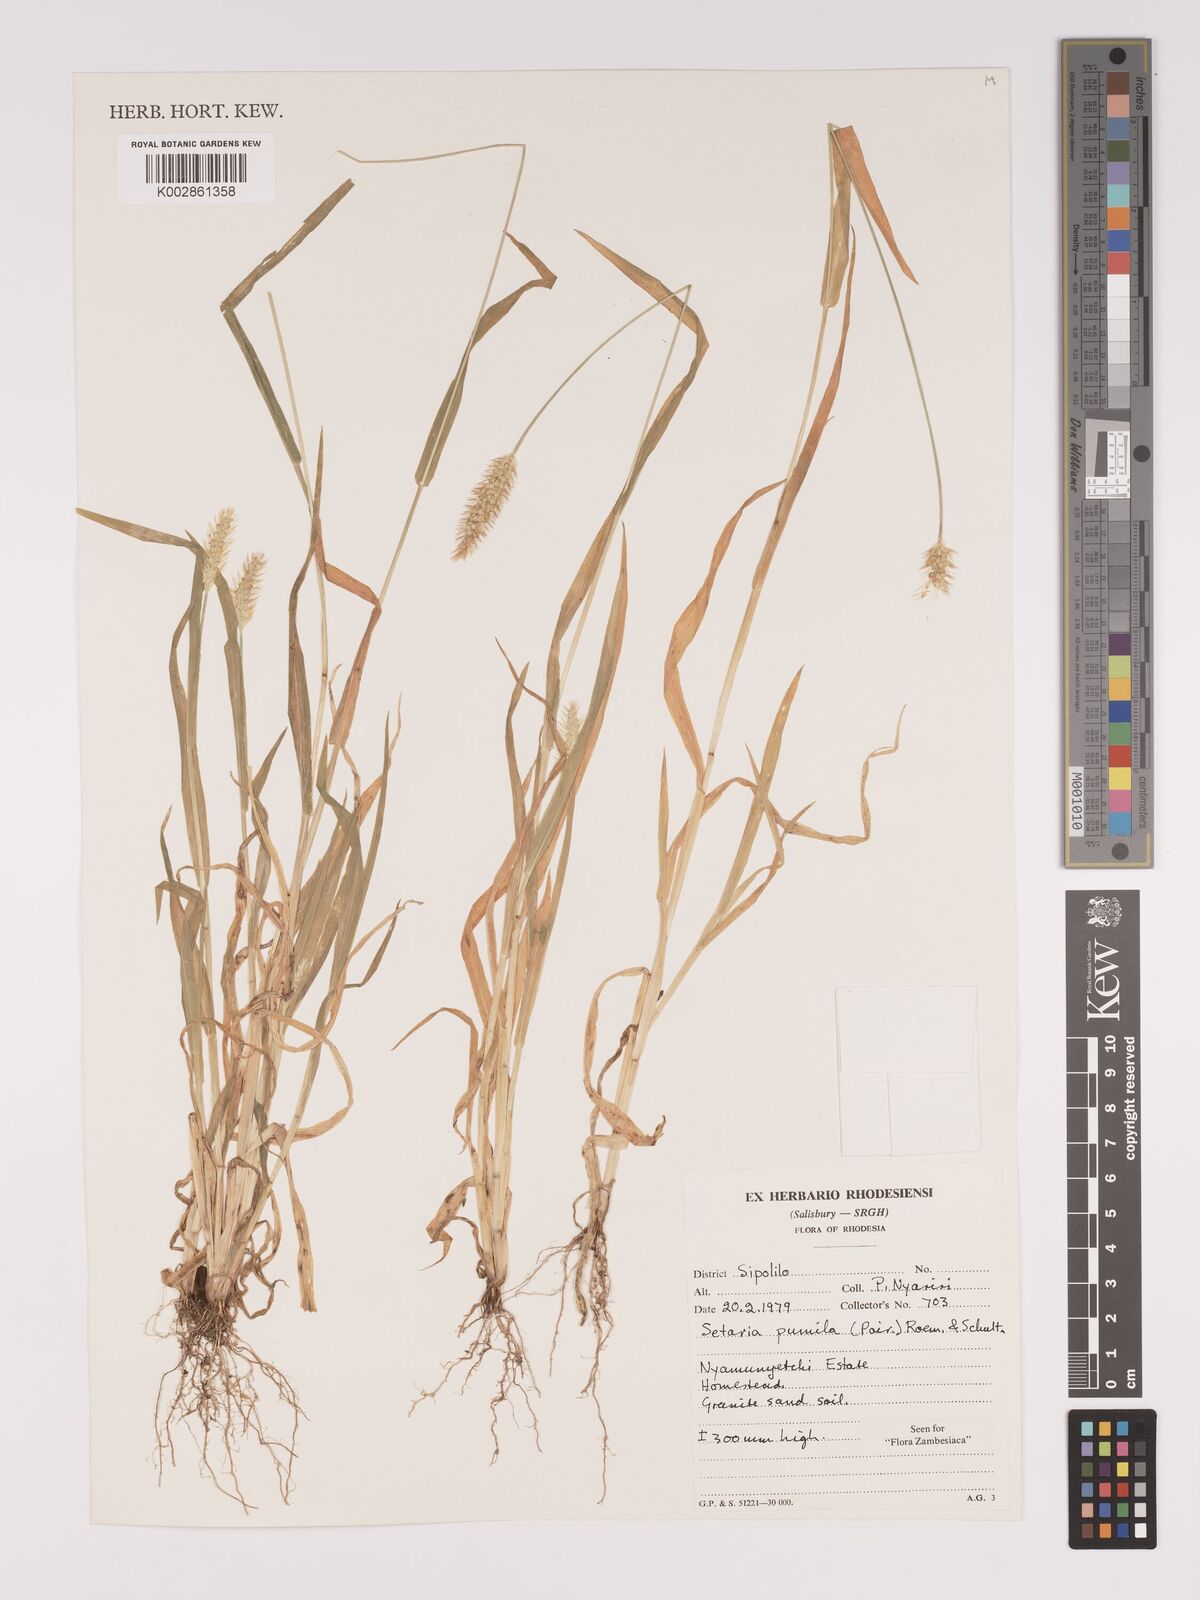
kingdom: Plantae
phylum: Tracheophyta
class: Liliopsida
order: Poales
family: Poaceae
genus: Setaria
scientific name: Setaria pumila
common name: Yellow bristle-grass
